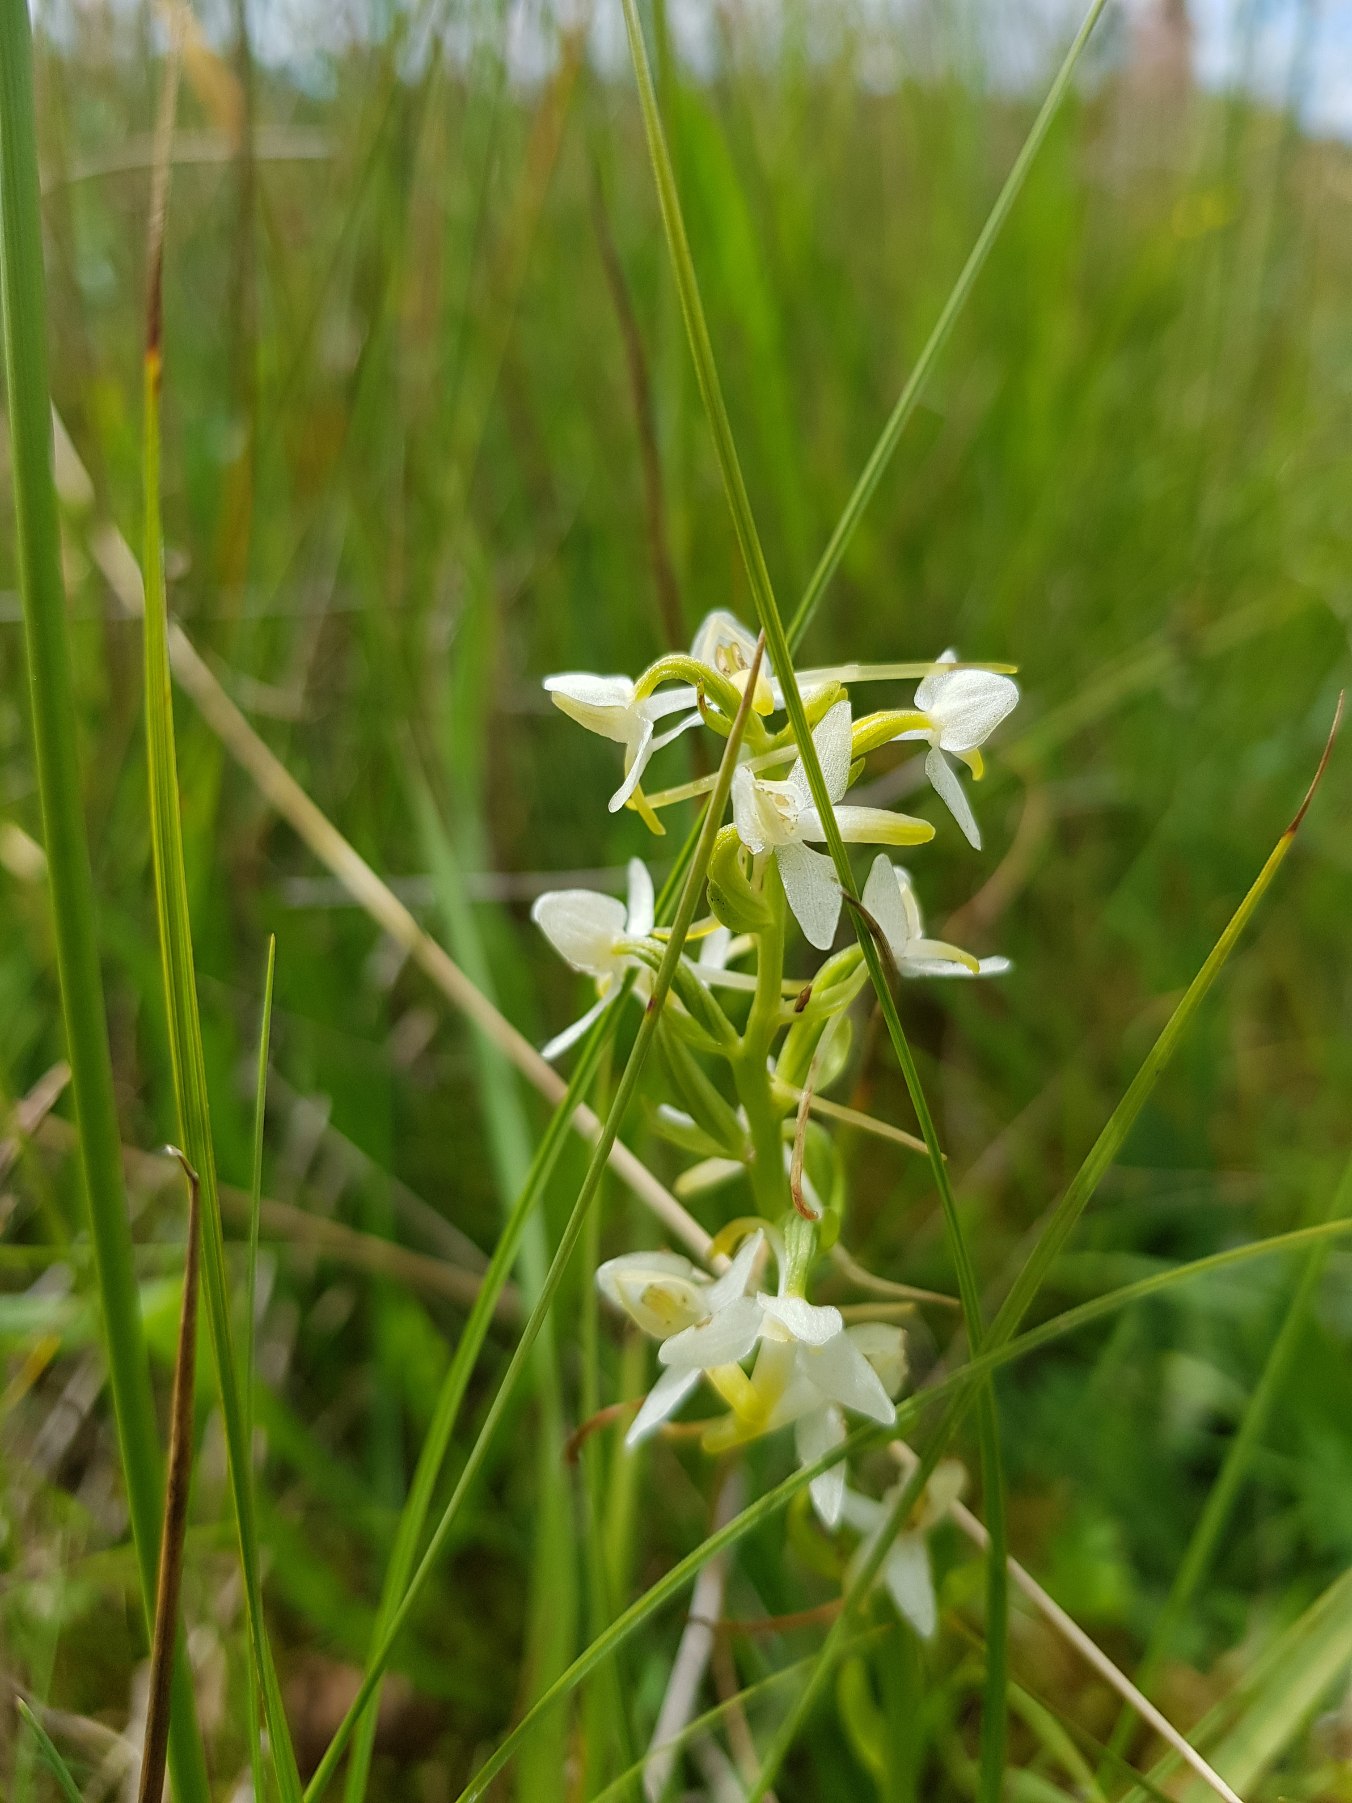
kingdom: Plantae
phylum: Tracheophyta
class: Liliopsida
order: Asparagales
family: Orchidaceae
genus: Platanthera
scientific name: Platanthera bifolia
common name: Bakke-gøgelilje
